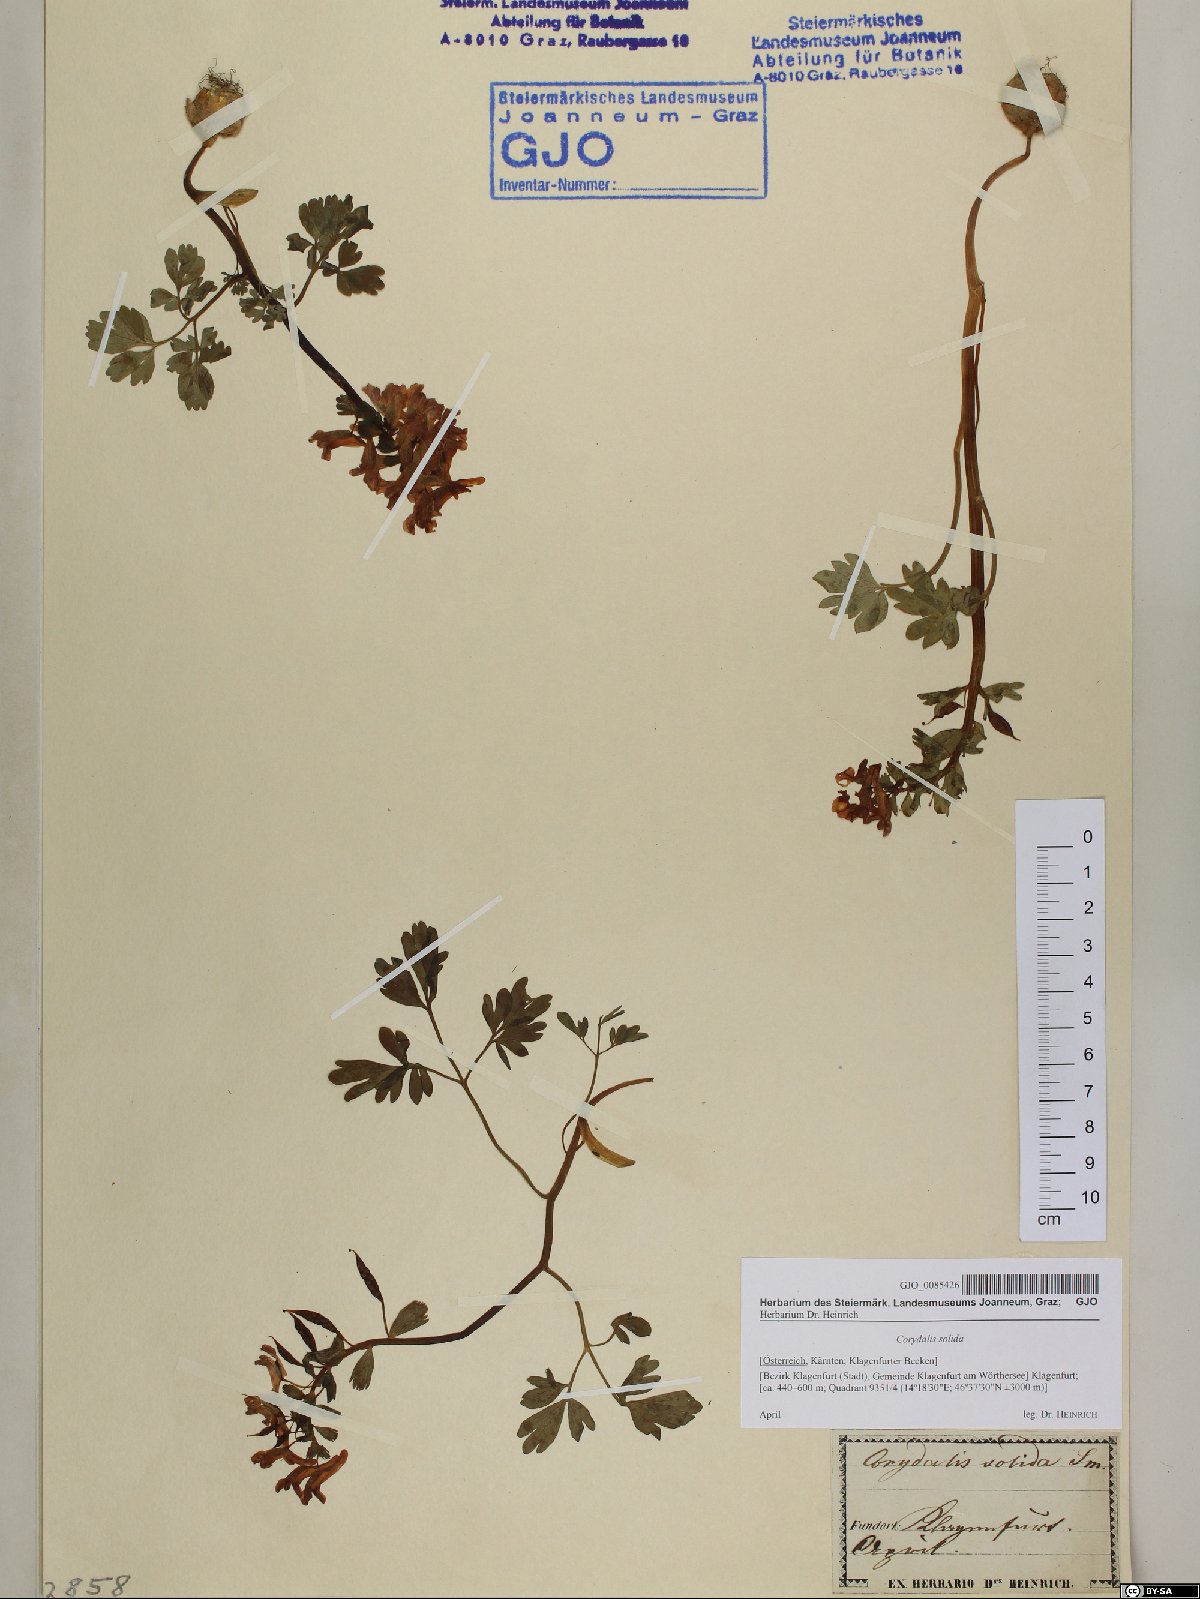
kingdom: Plantae
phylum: Tracheophyta
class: Magnoliopsida
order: Ranunculales
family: Papaveraceae
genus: Corydalis
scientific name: Corydalis solida
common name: Bird-in-a-bush
